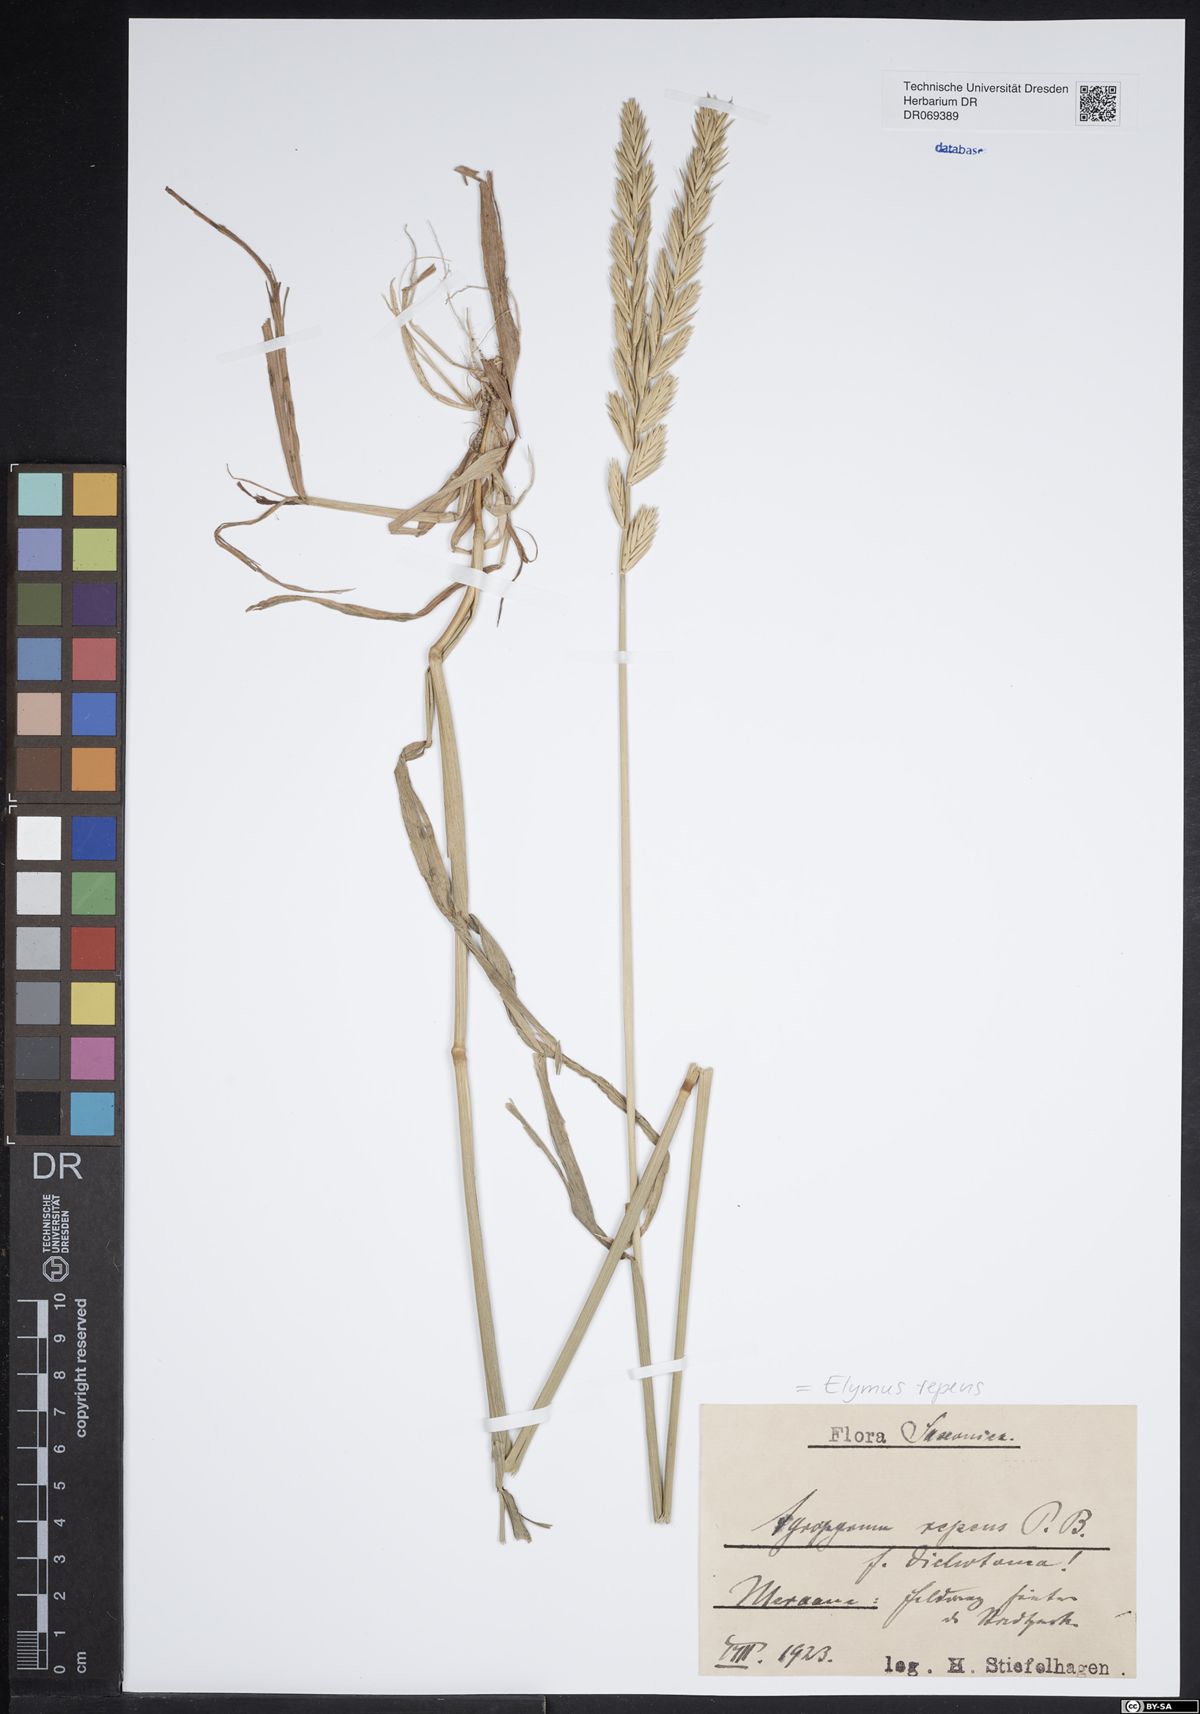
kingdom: Plantae
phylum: Tracheophyta
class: Liliopsida
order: Poales
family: Poaceae
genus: Elymus
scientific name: Elymus repens
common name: Quackgrass
